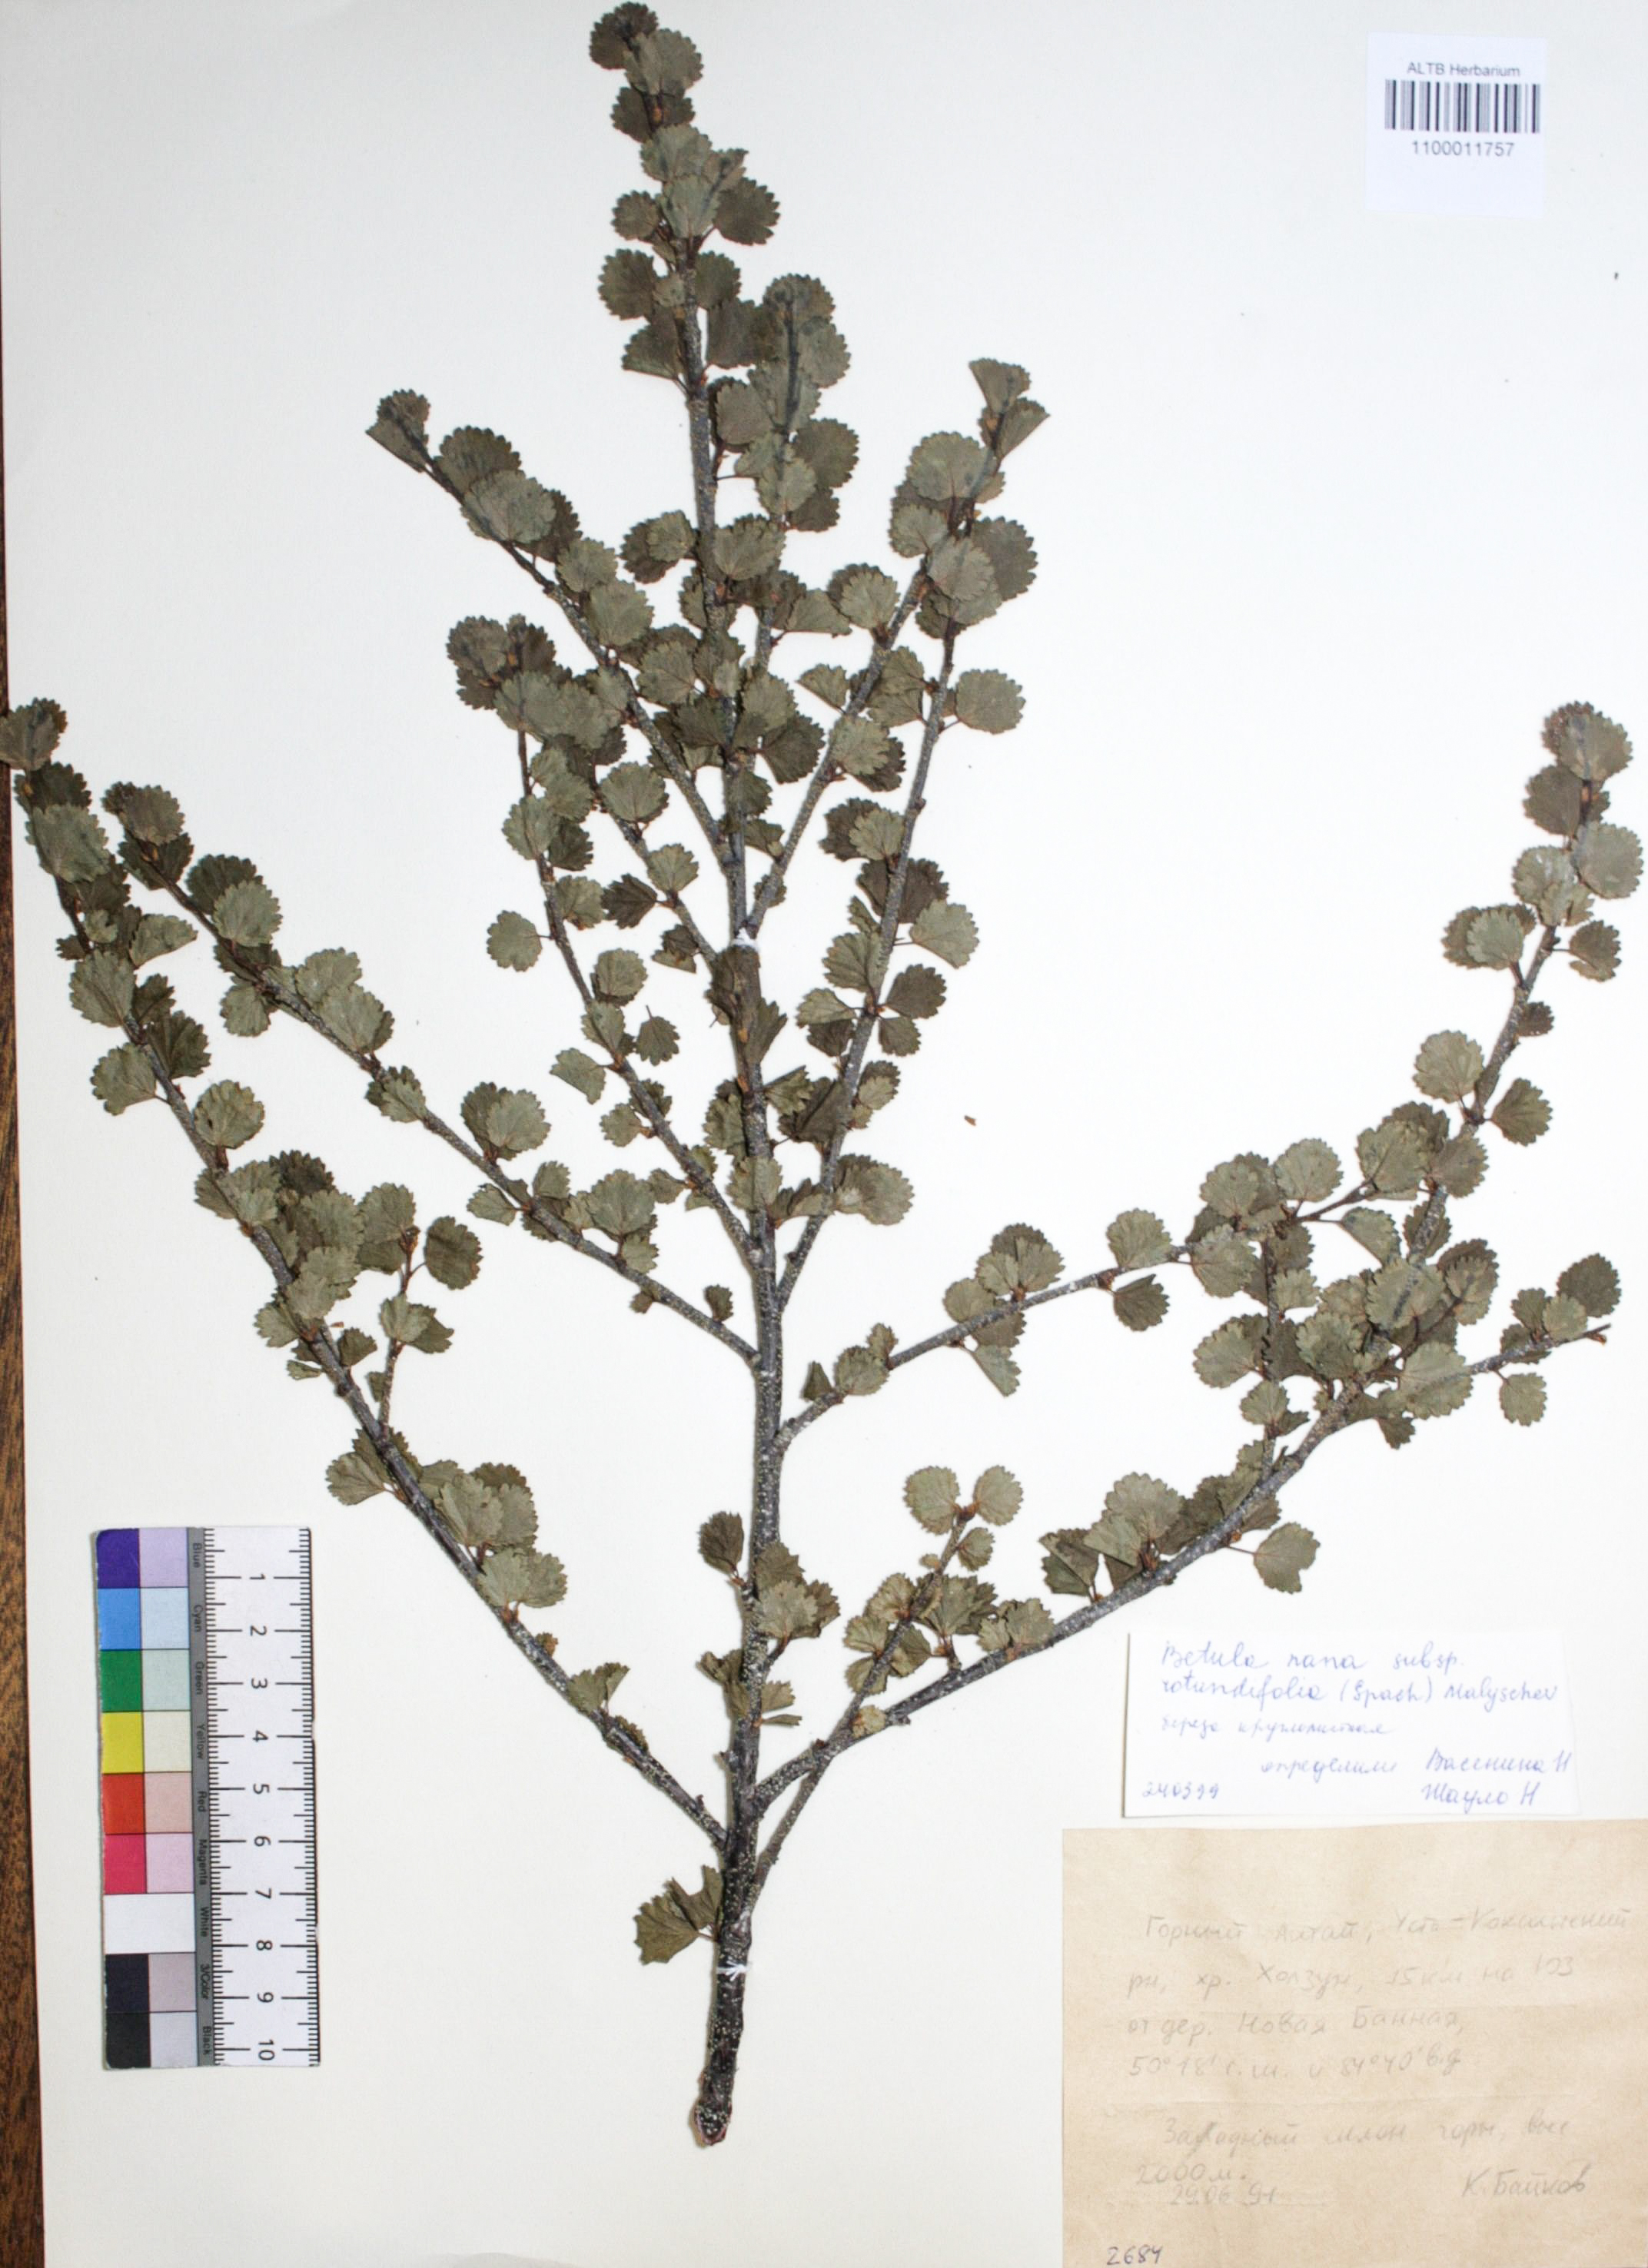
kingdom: Plantae
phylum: Tracheophyta
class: Magnoliopsida
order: Fagales
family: Betulaceae
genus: Betula
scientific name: Betula glandulosa
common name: Dwarf birch
